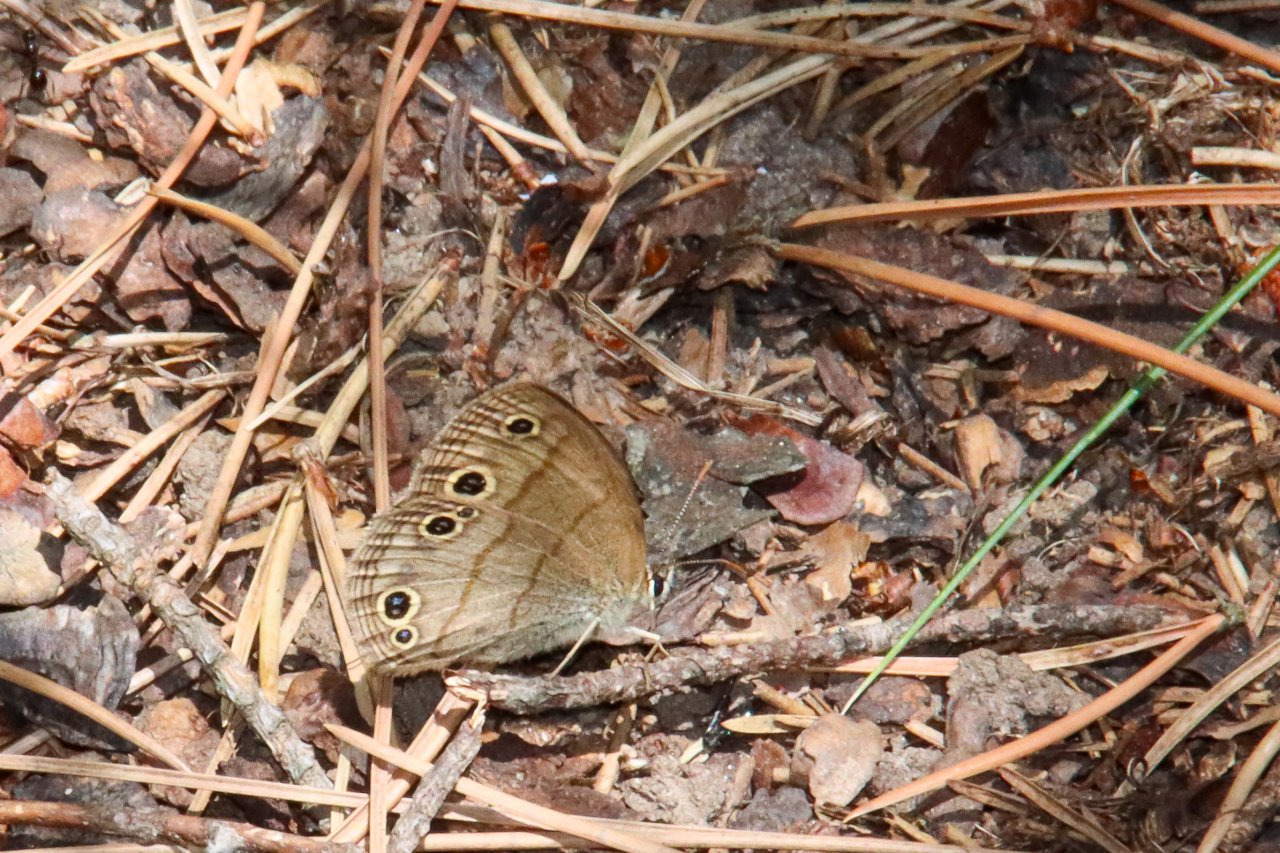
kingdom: Animalia
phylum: Arthropoda
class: Insecta
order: Lepidoptera
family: Nymphalidae
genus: Euptychia
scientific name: Euptychia cymela
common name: Little Wood Satyr
